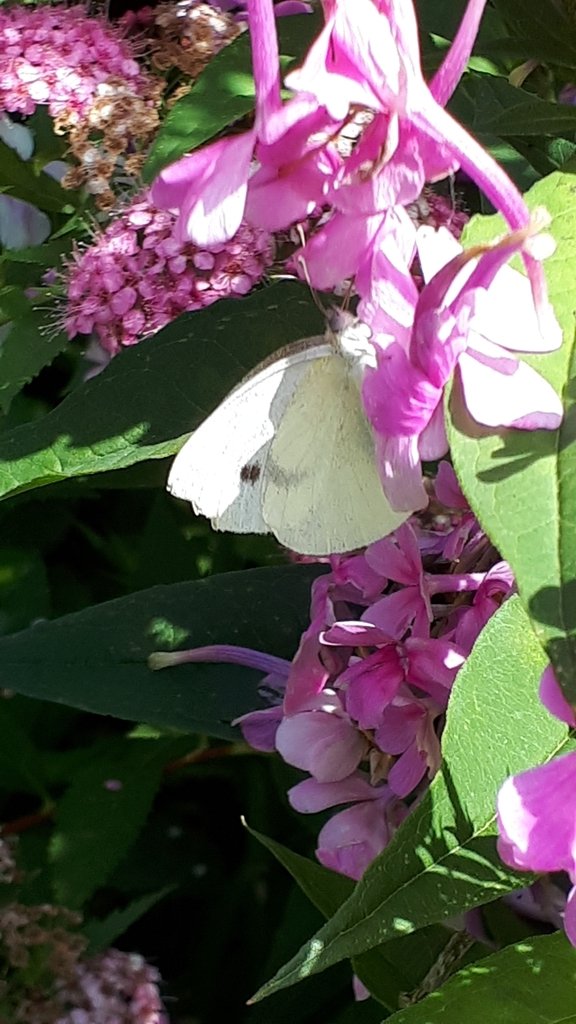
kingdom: Animalia
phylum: Arthropoda
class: Insecta
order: Lepidoptera
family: Pieridae
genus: Pieris
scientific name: Pieris rapae
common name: Cabbage White
